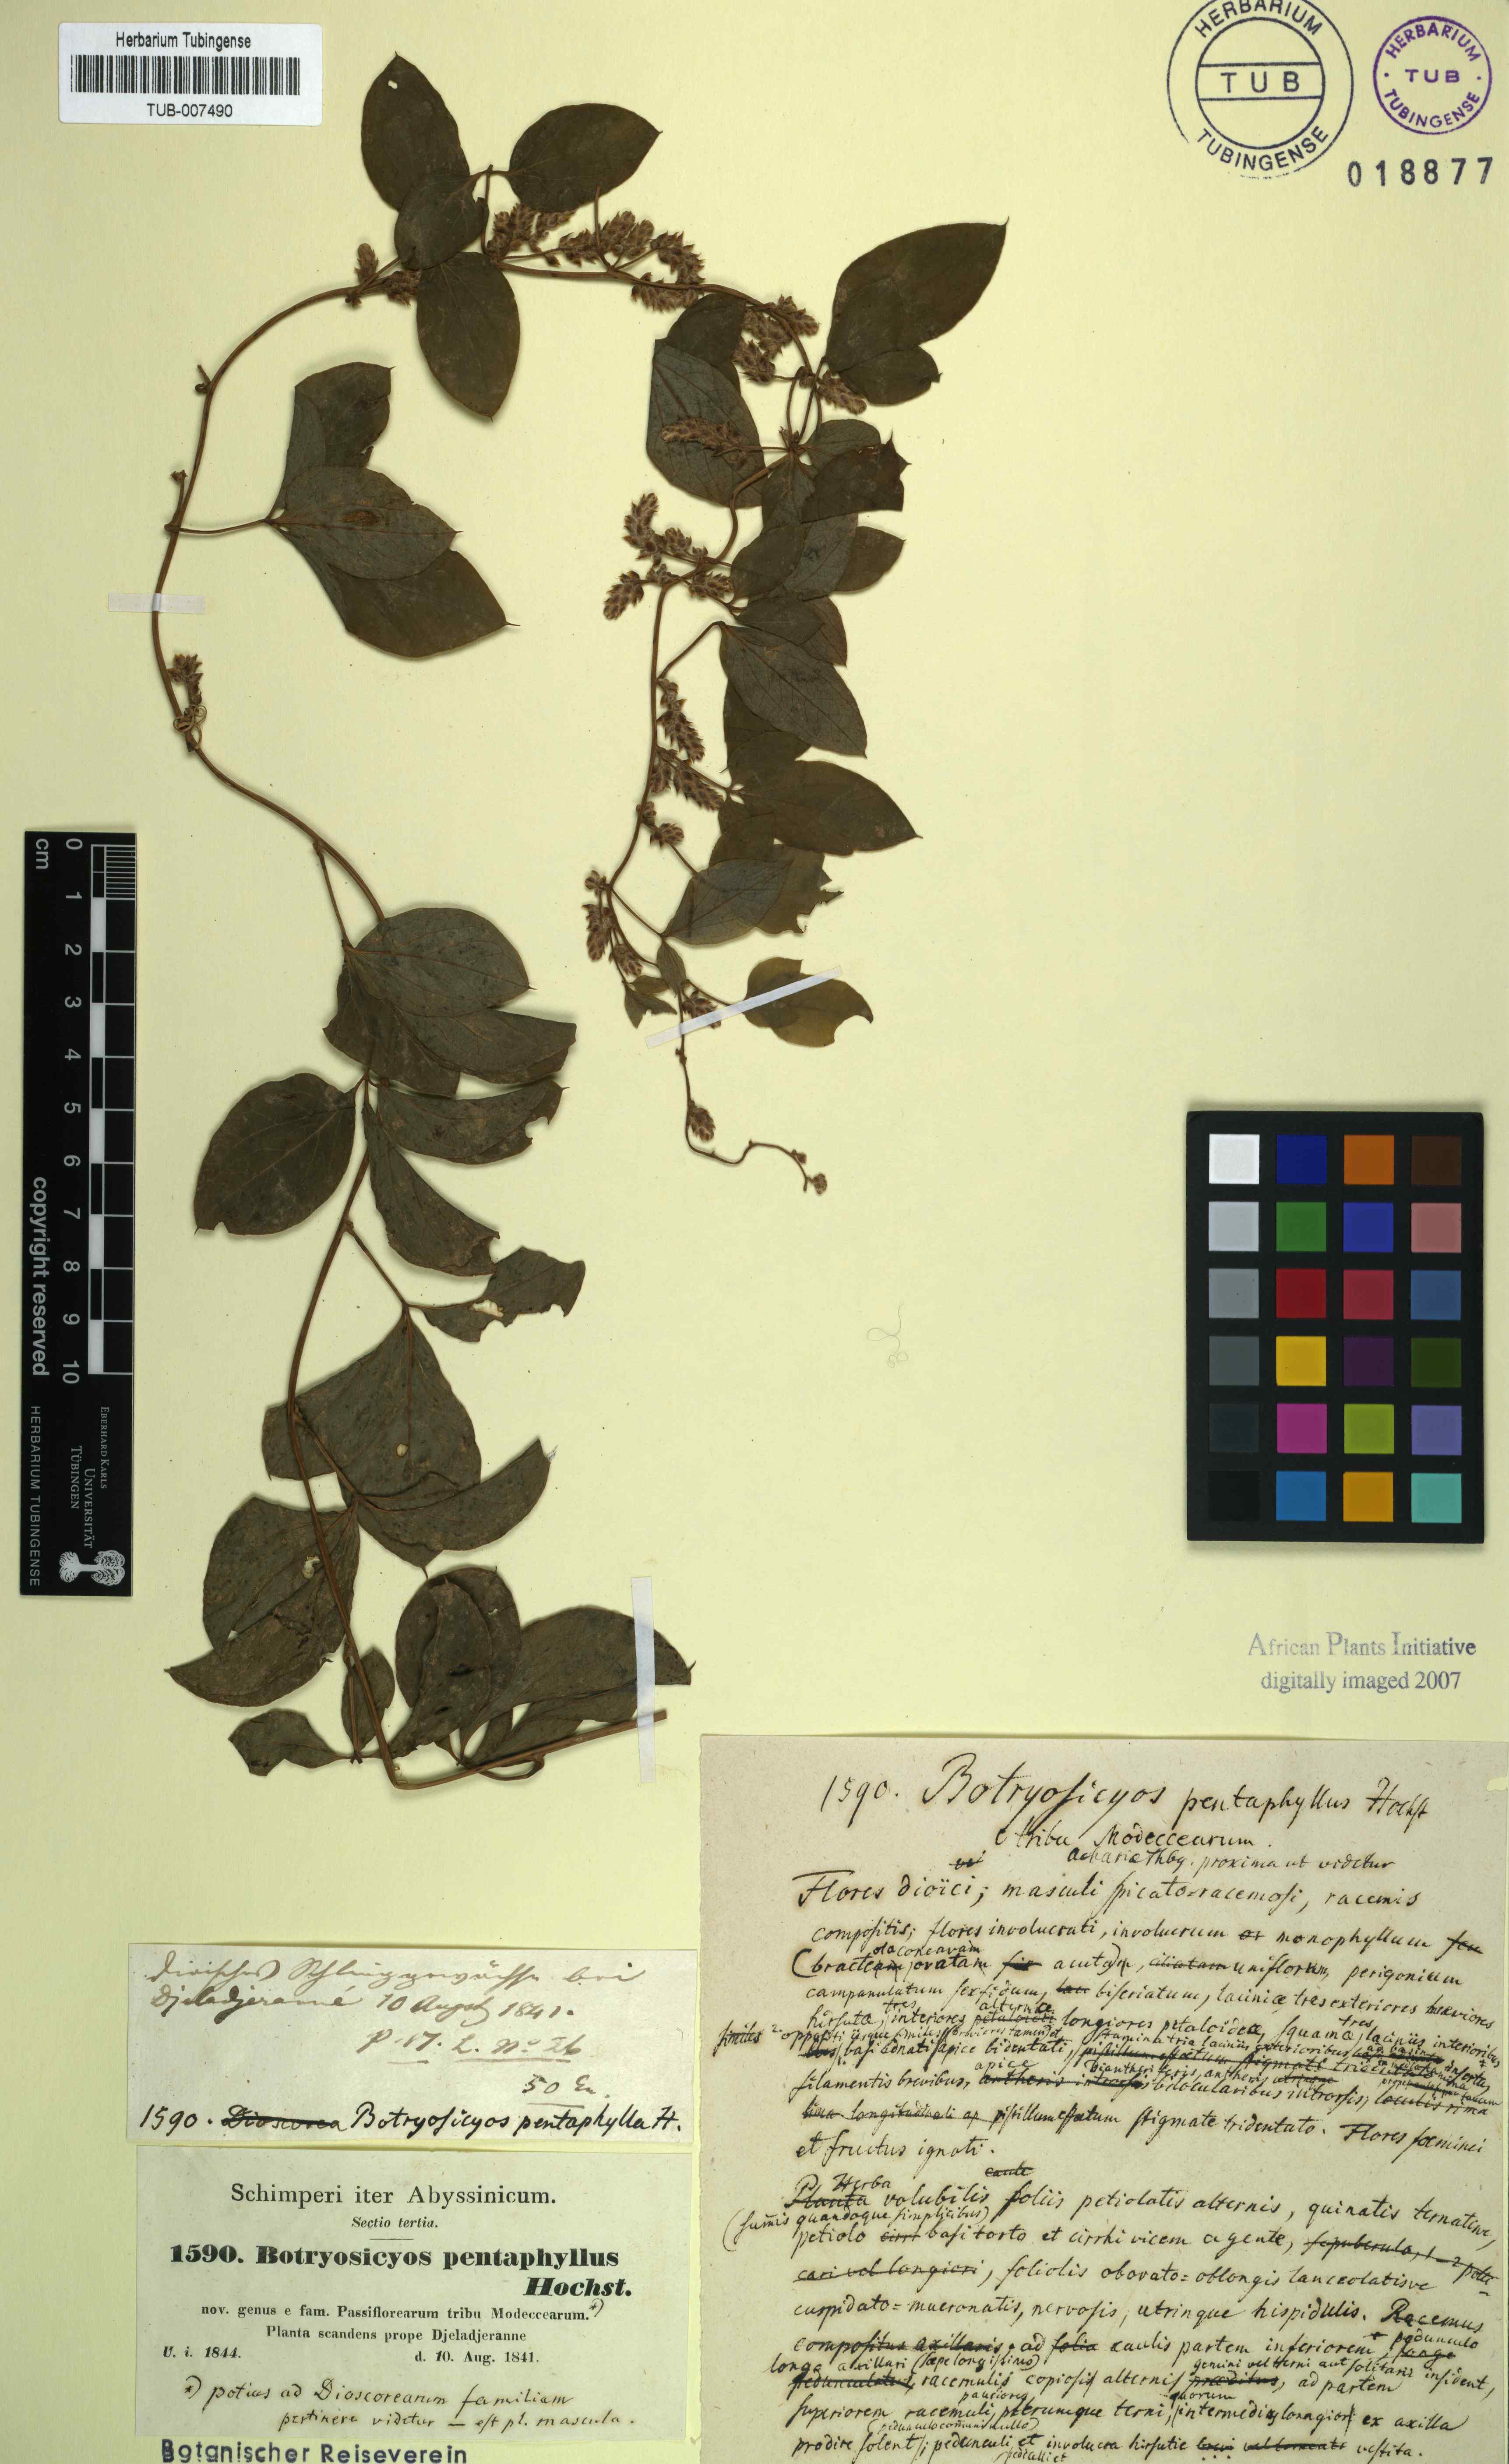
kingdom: Plantae
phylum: Tracheophyta
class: Liliopsida
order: Dioscoreales
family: Dioscoreaceae
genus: Dioscorea
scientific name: Dioscorea pentaphylla
